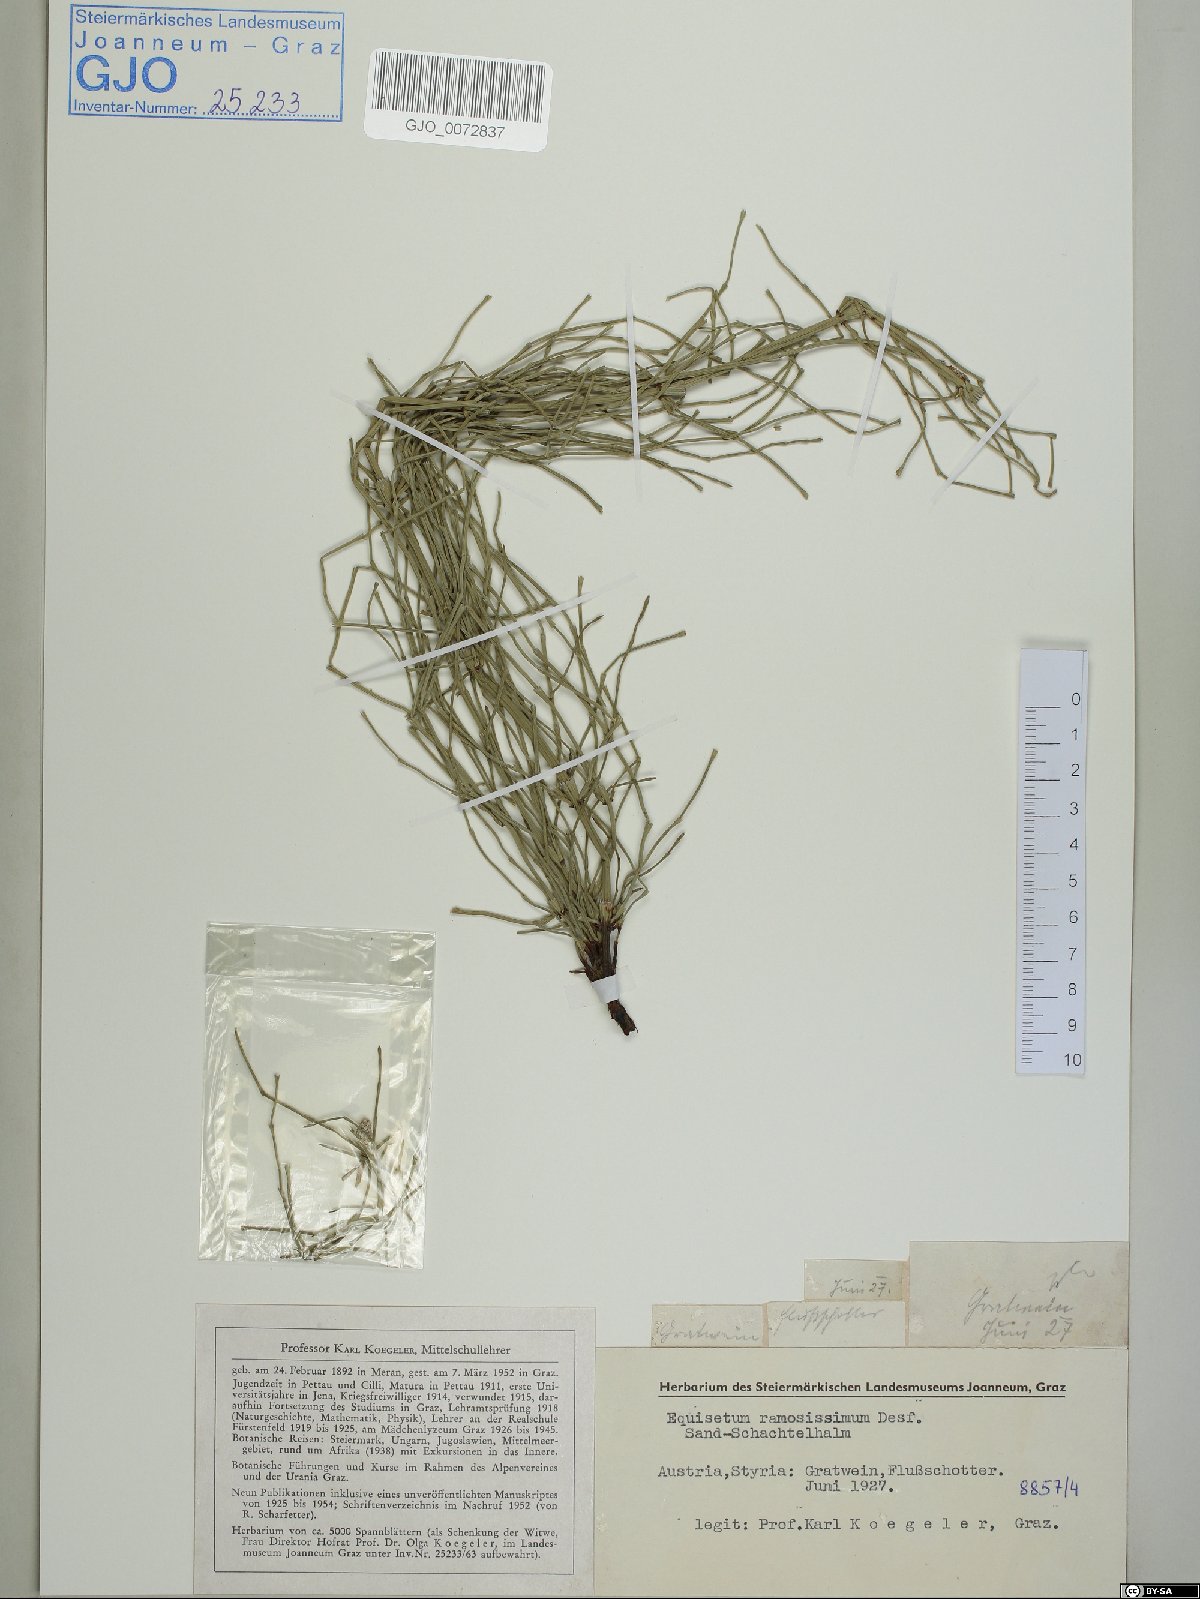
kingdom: Plantae
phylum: Tracheophyta
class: Polypodiopsida
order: Equisetales
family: Equisetaceae
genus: Equisetum
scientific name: Equisetum ramosissimum
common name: Branched horsetail
